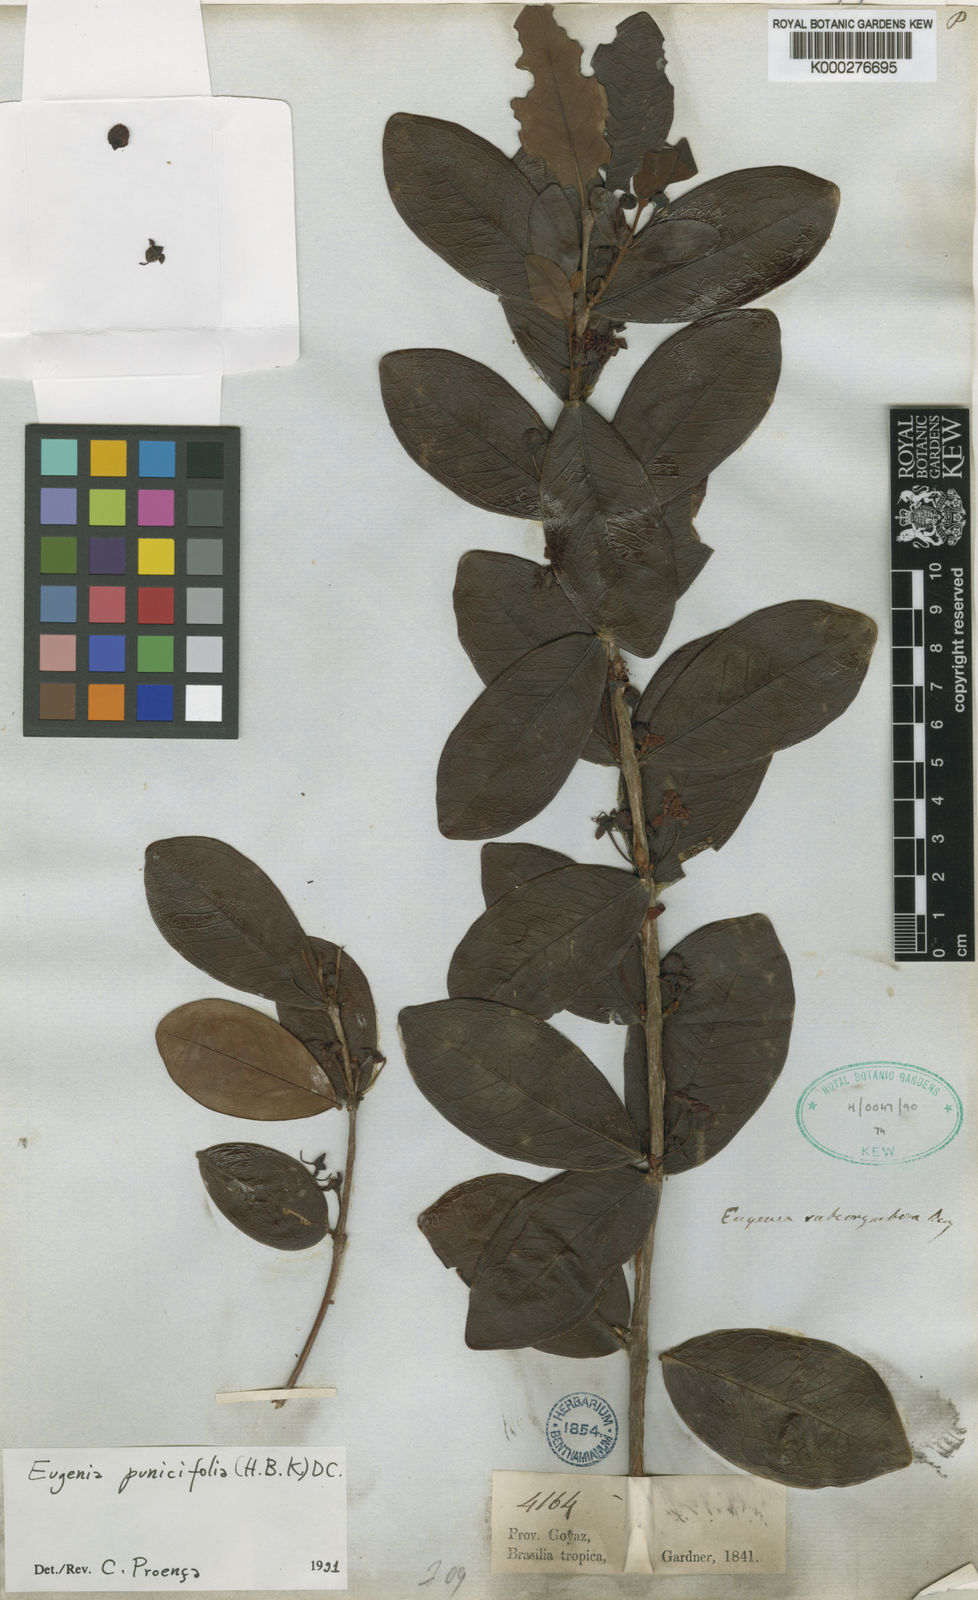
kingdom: Plantae
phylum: Tracheophyta
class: Magnoliopsida
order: Myrtales
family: Myrtaceae
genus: Eugenia
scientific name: Eugenia punicifolia
